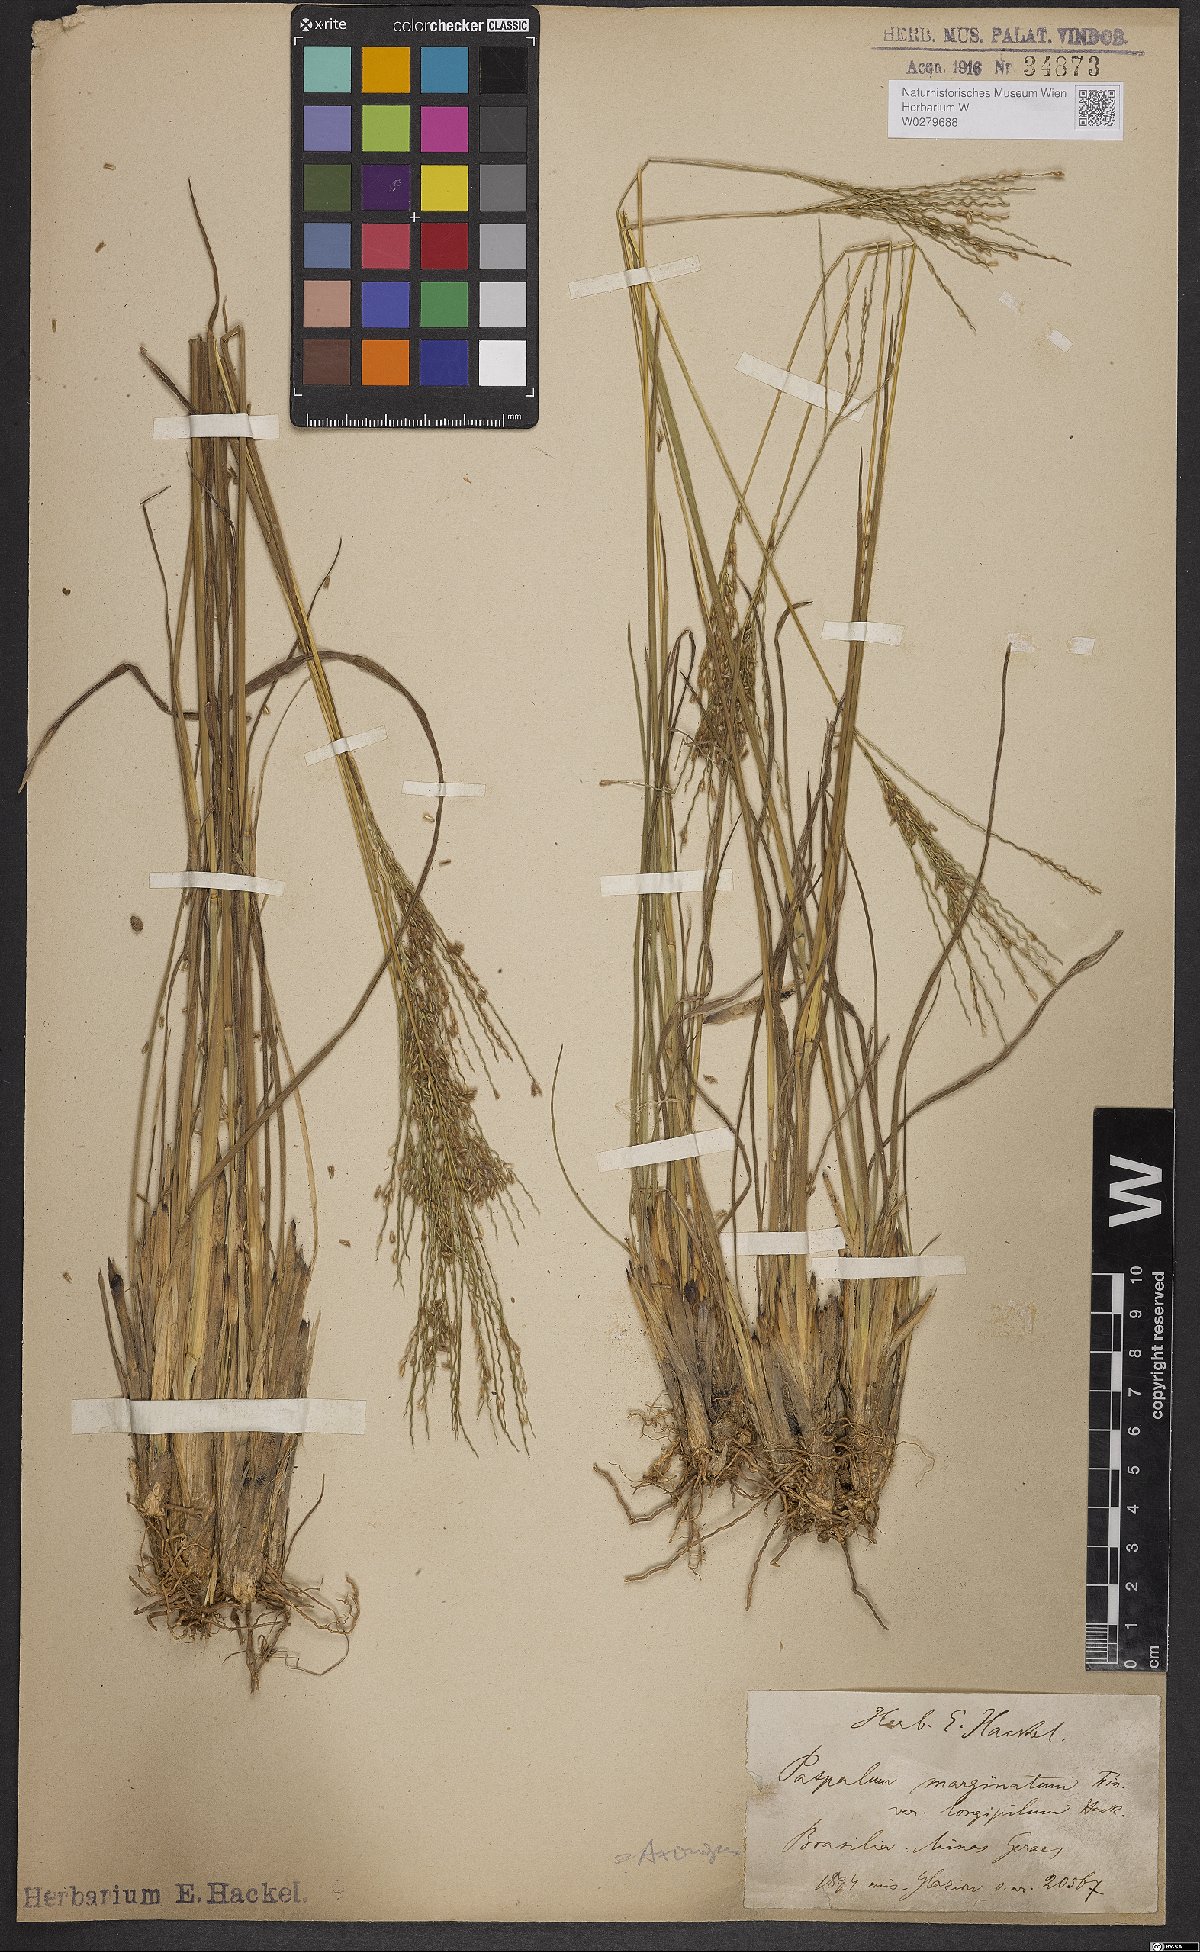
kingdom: Plantae
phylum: Tracheophyta
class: Liliopsida
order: Poales
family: Poaceae
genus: Axonopus
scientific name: Axonopus marginatus
